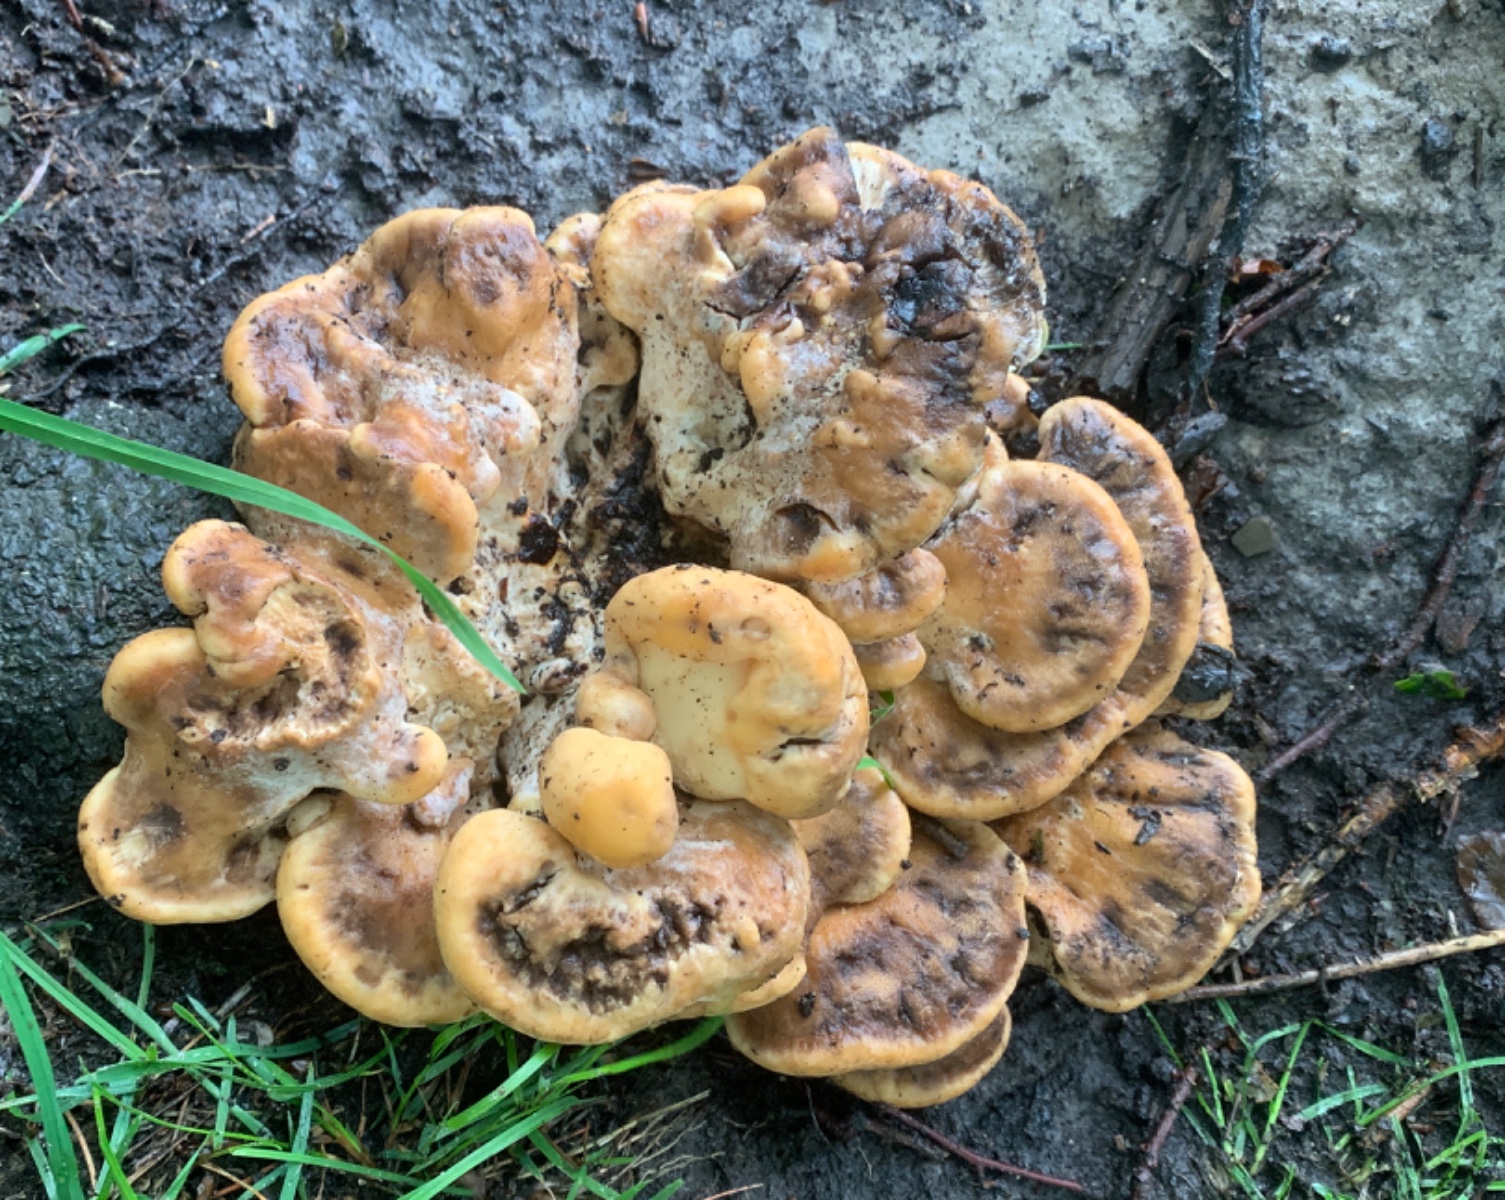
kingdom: Fungi
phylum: Basidiomycota
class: Agaricomycetes
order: Polyporales
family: Meripilaceae
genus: Meripilus
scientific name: Meripilus giganteus
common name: kæmpeporesvamp
